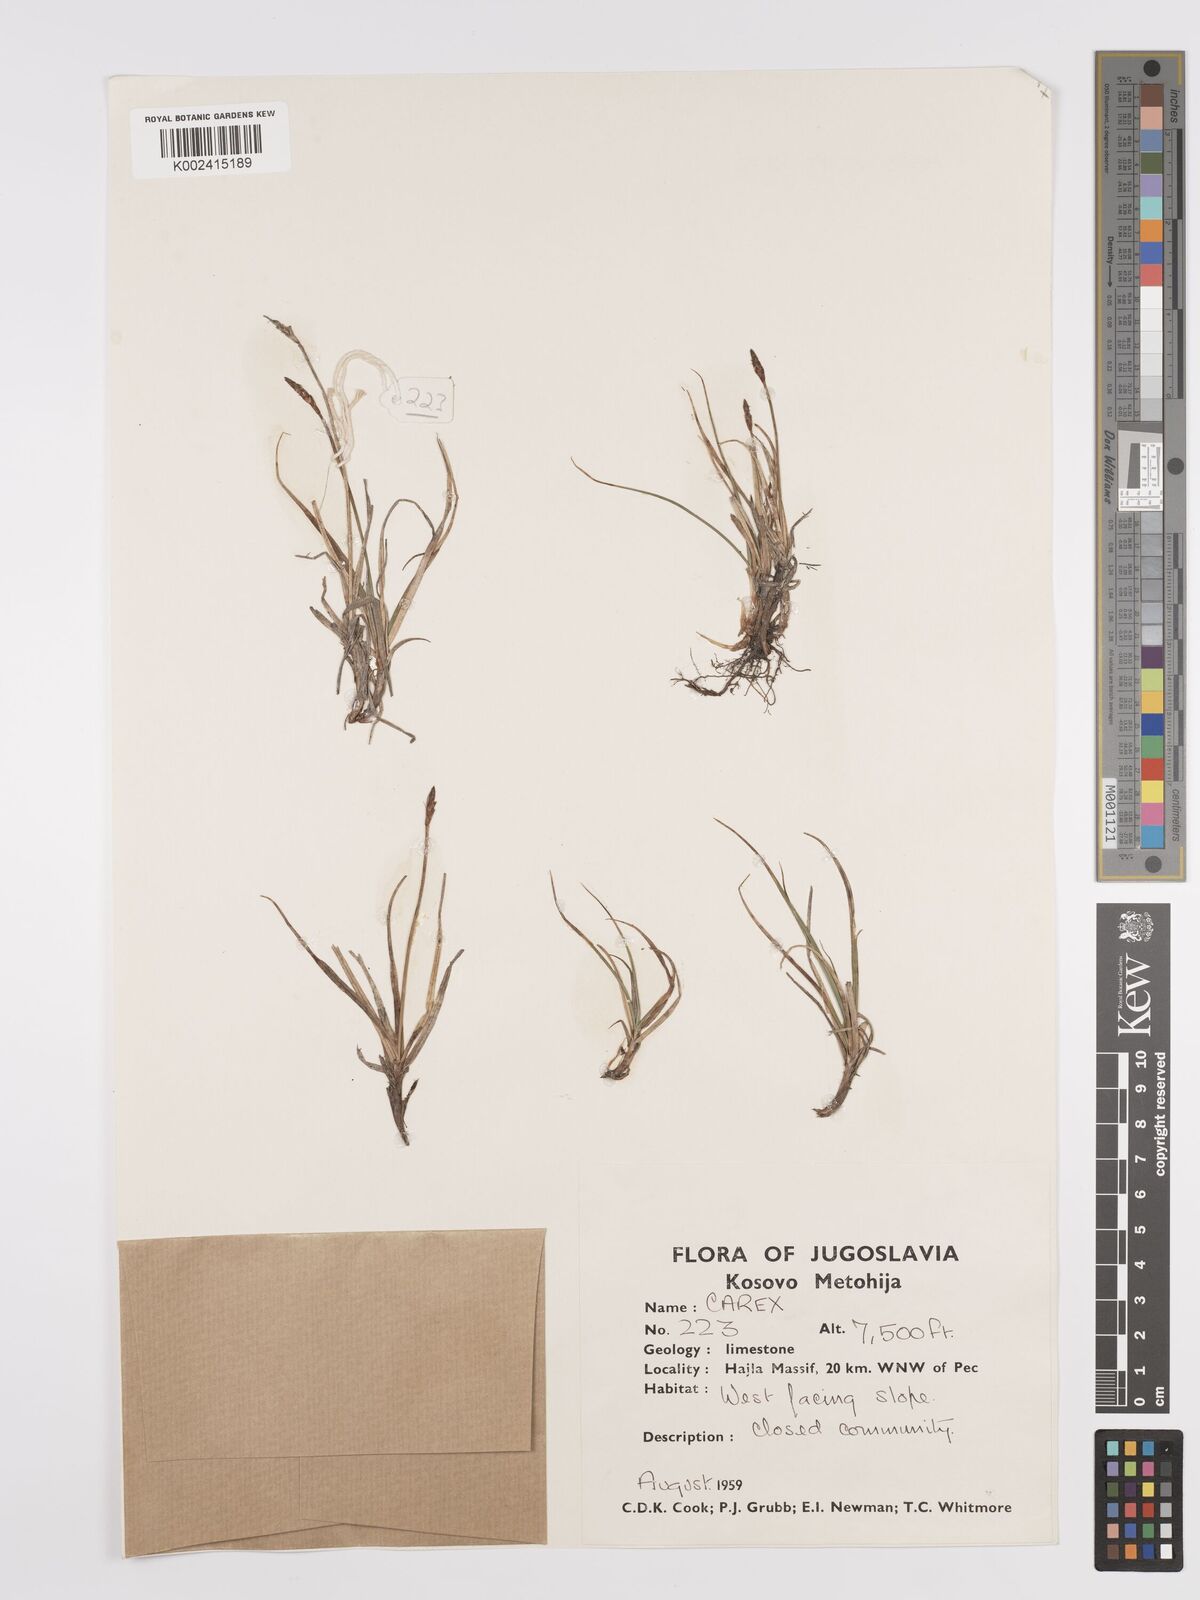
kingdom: Plantae
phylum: Tracheophyta
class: Liliopsida
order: Poales
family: Cyperaceae
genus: Carex
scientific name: Carex rupestris
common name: Rock sedge
